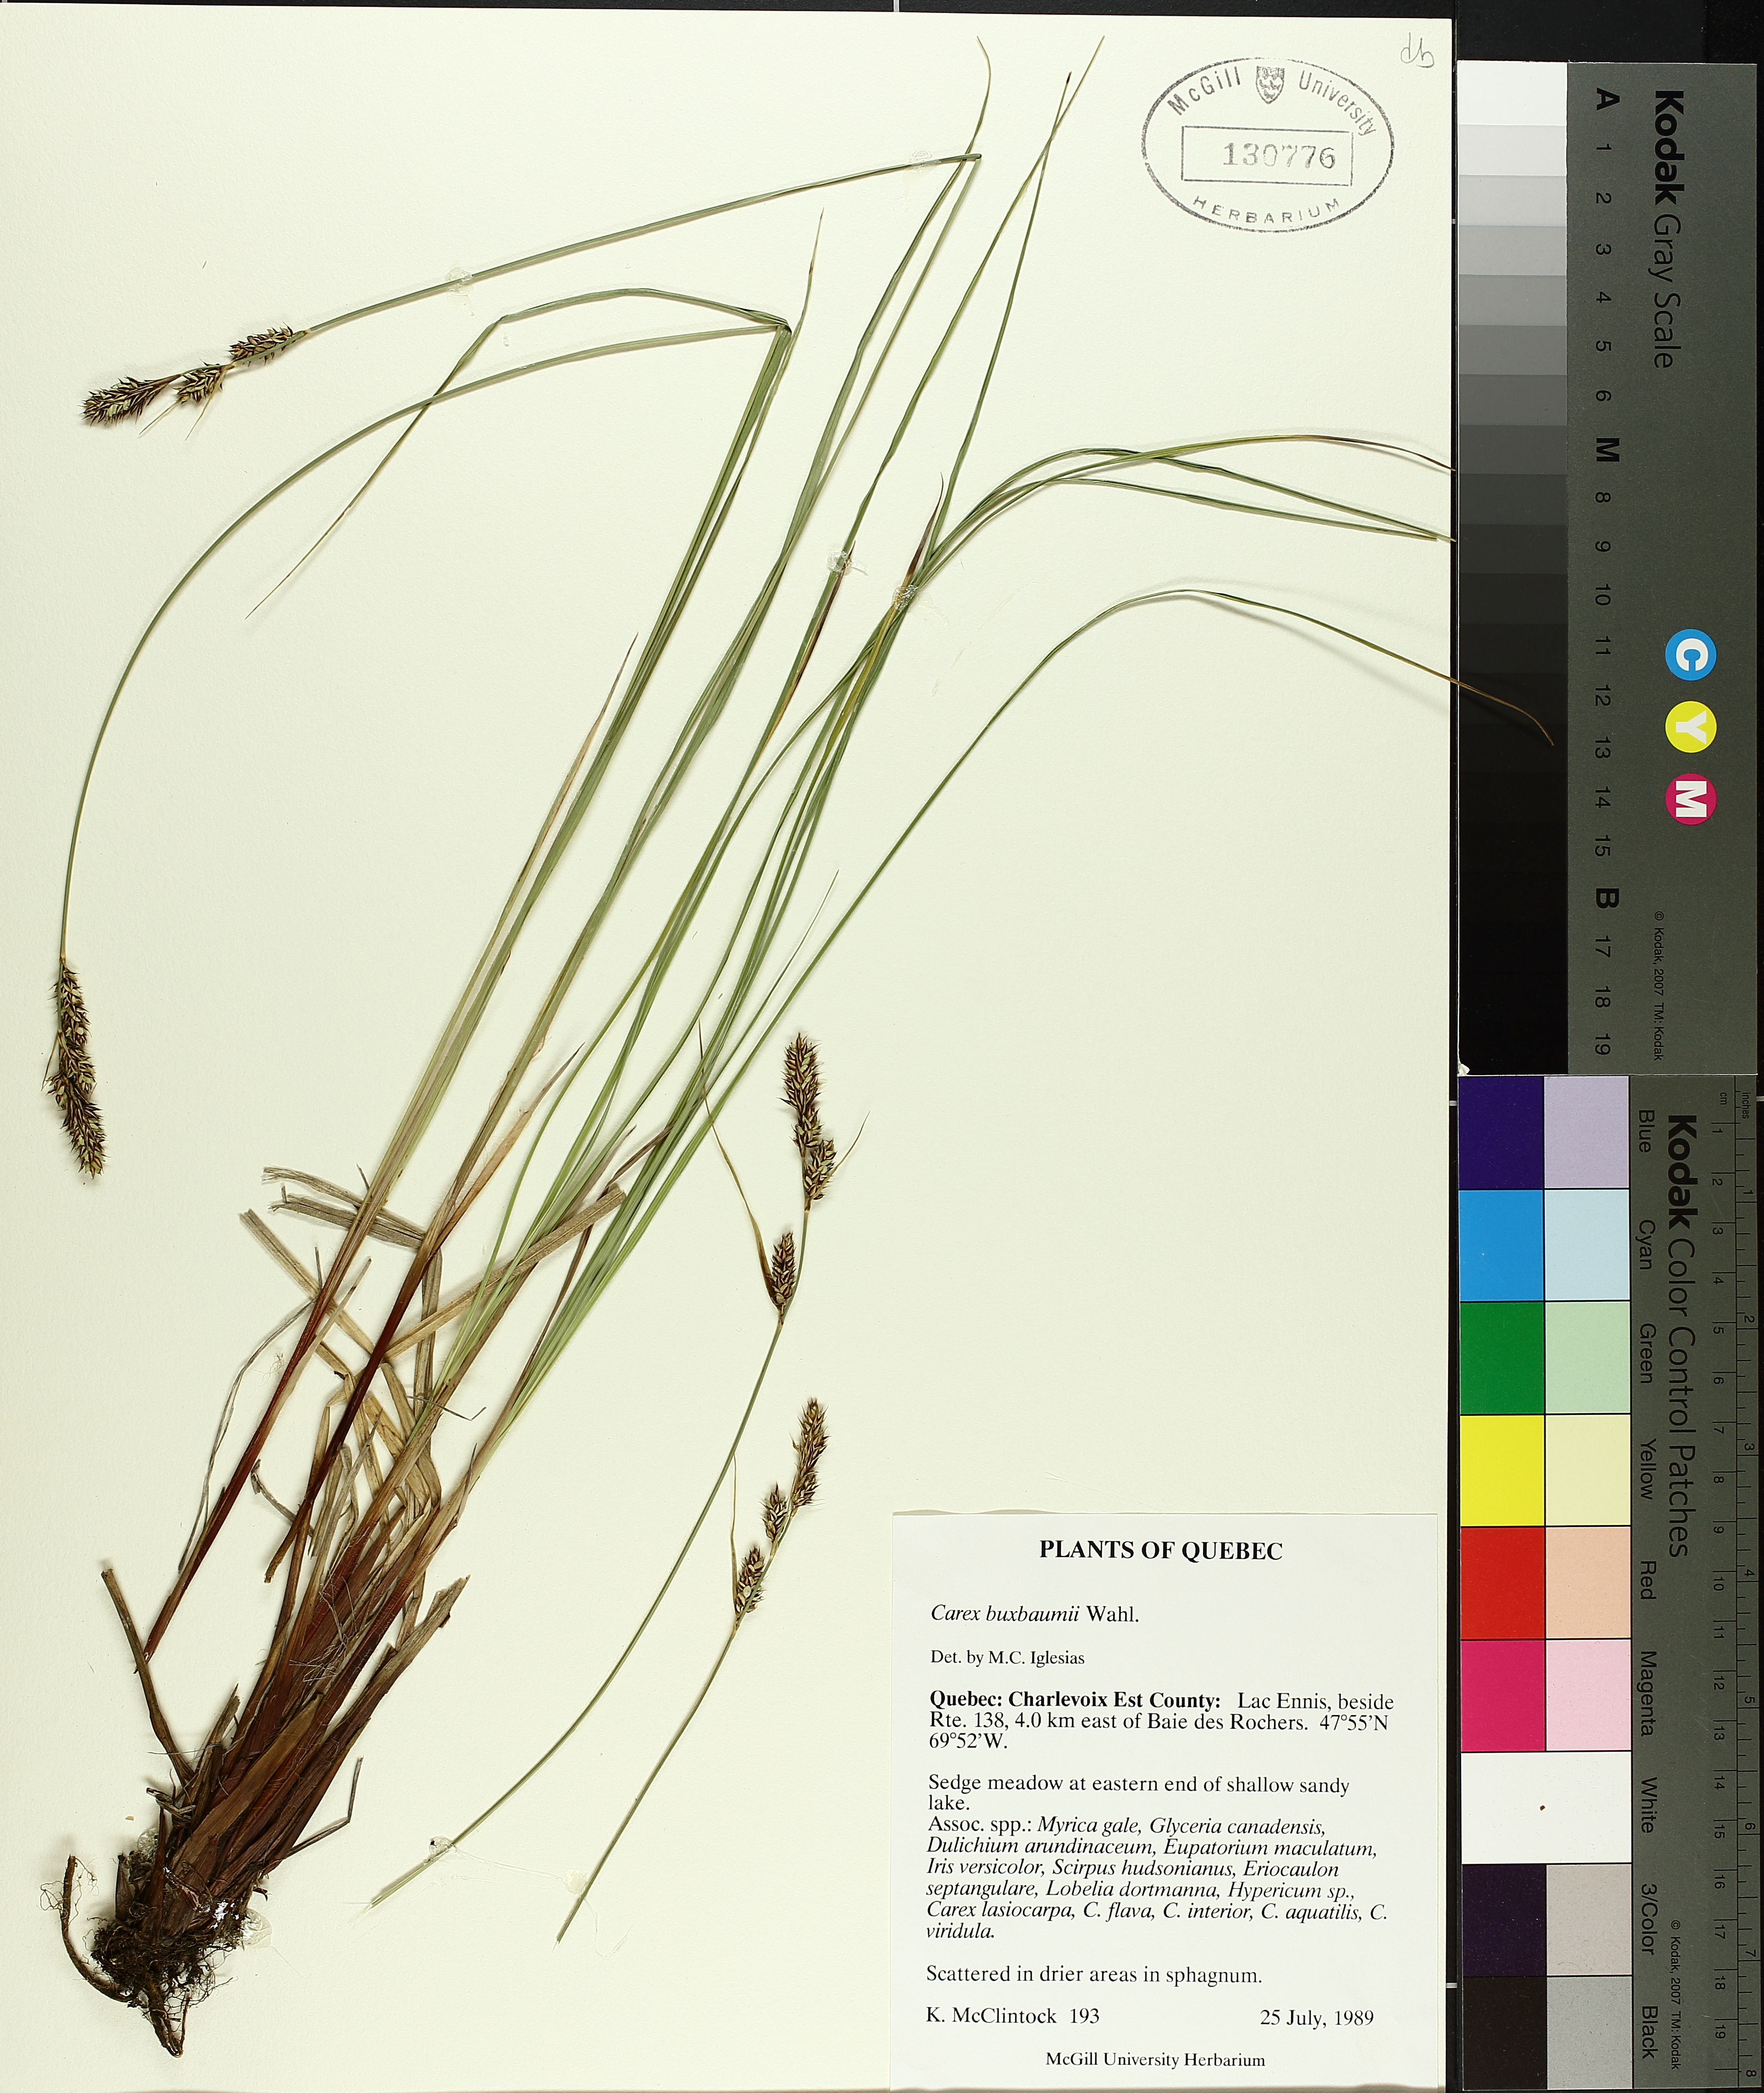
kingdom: Plantae
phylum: Tracheophyta
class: Liliopsida
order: Poales
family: Cyperaceae
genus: Carex
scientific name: Carex buxbaumii
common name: Club sedge
